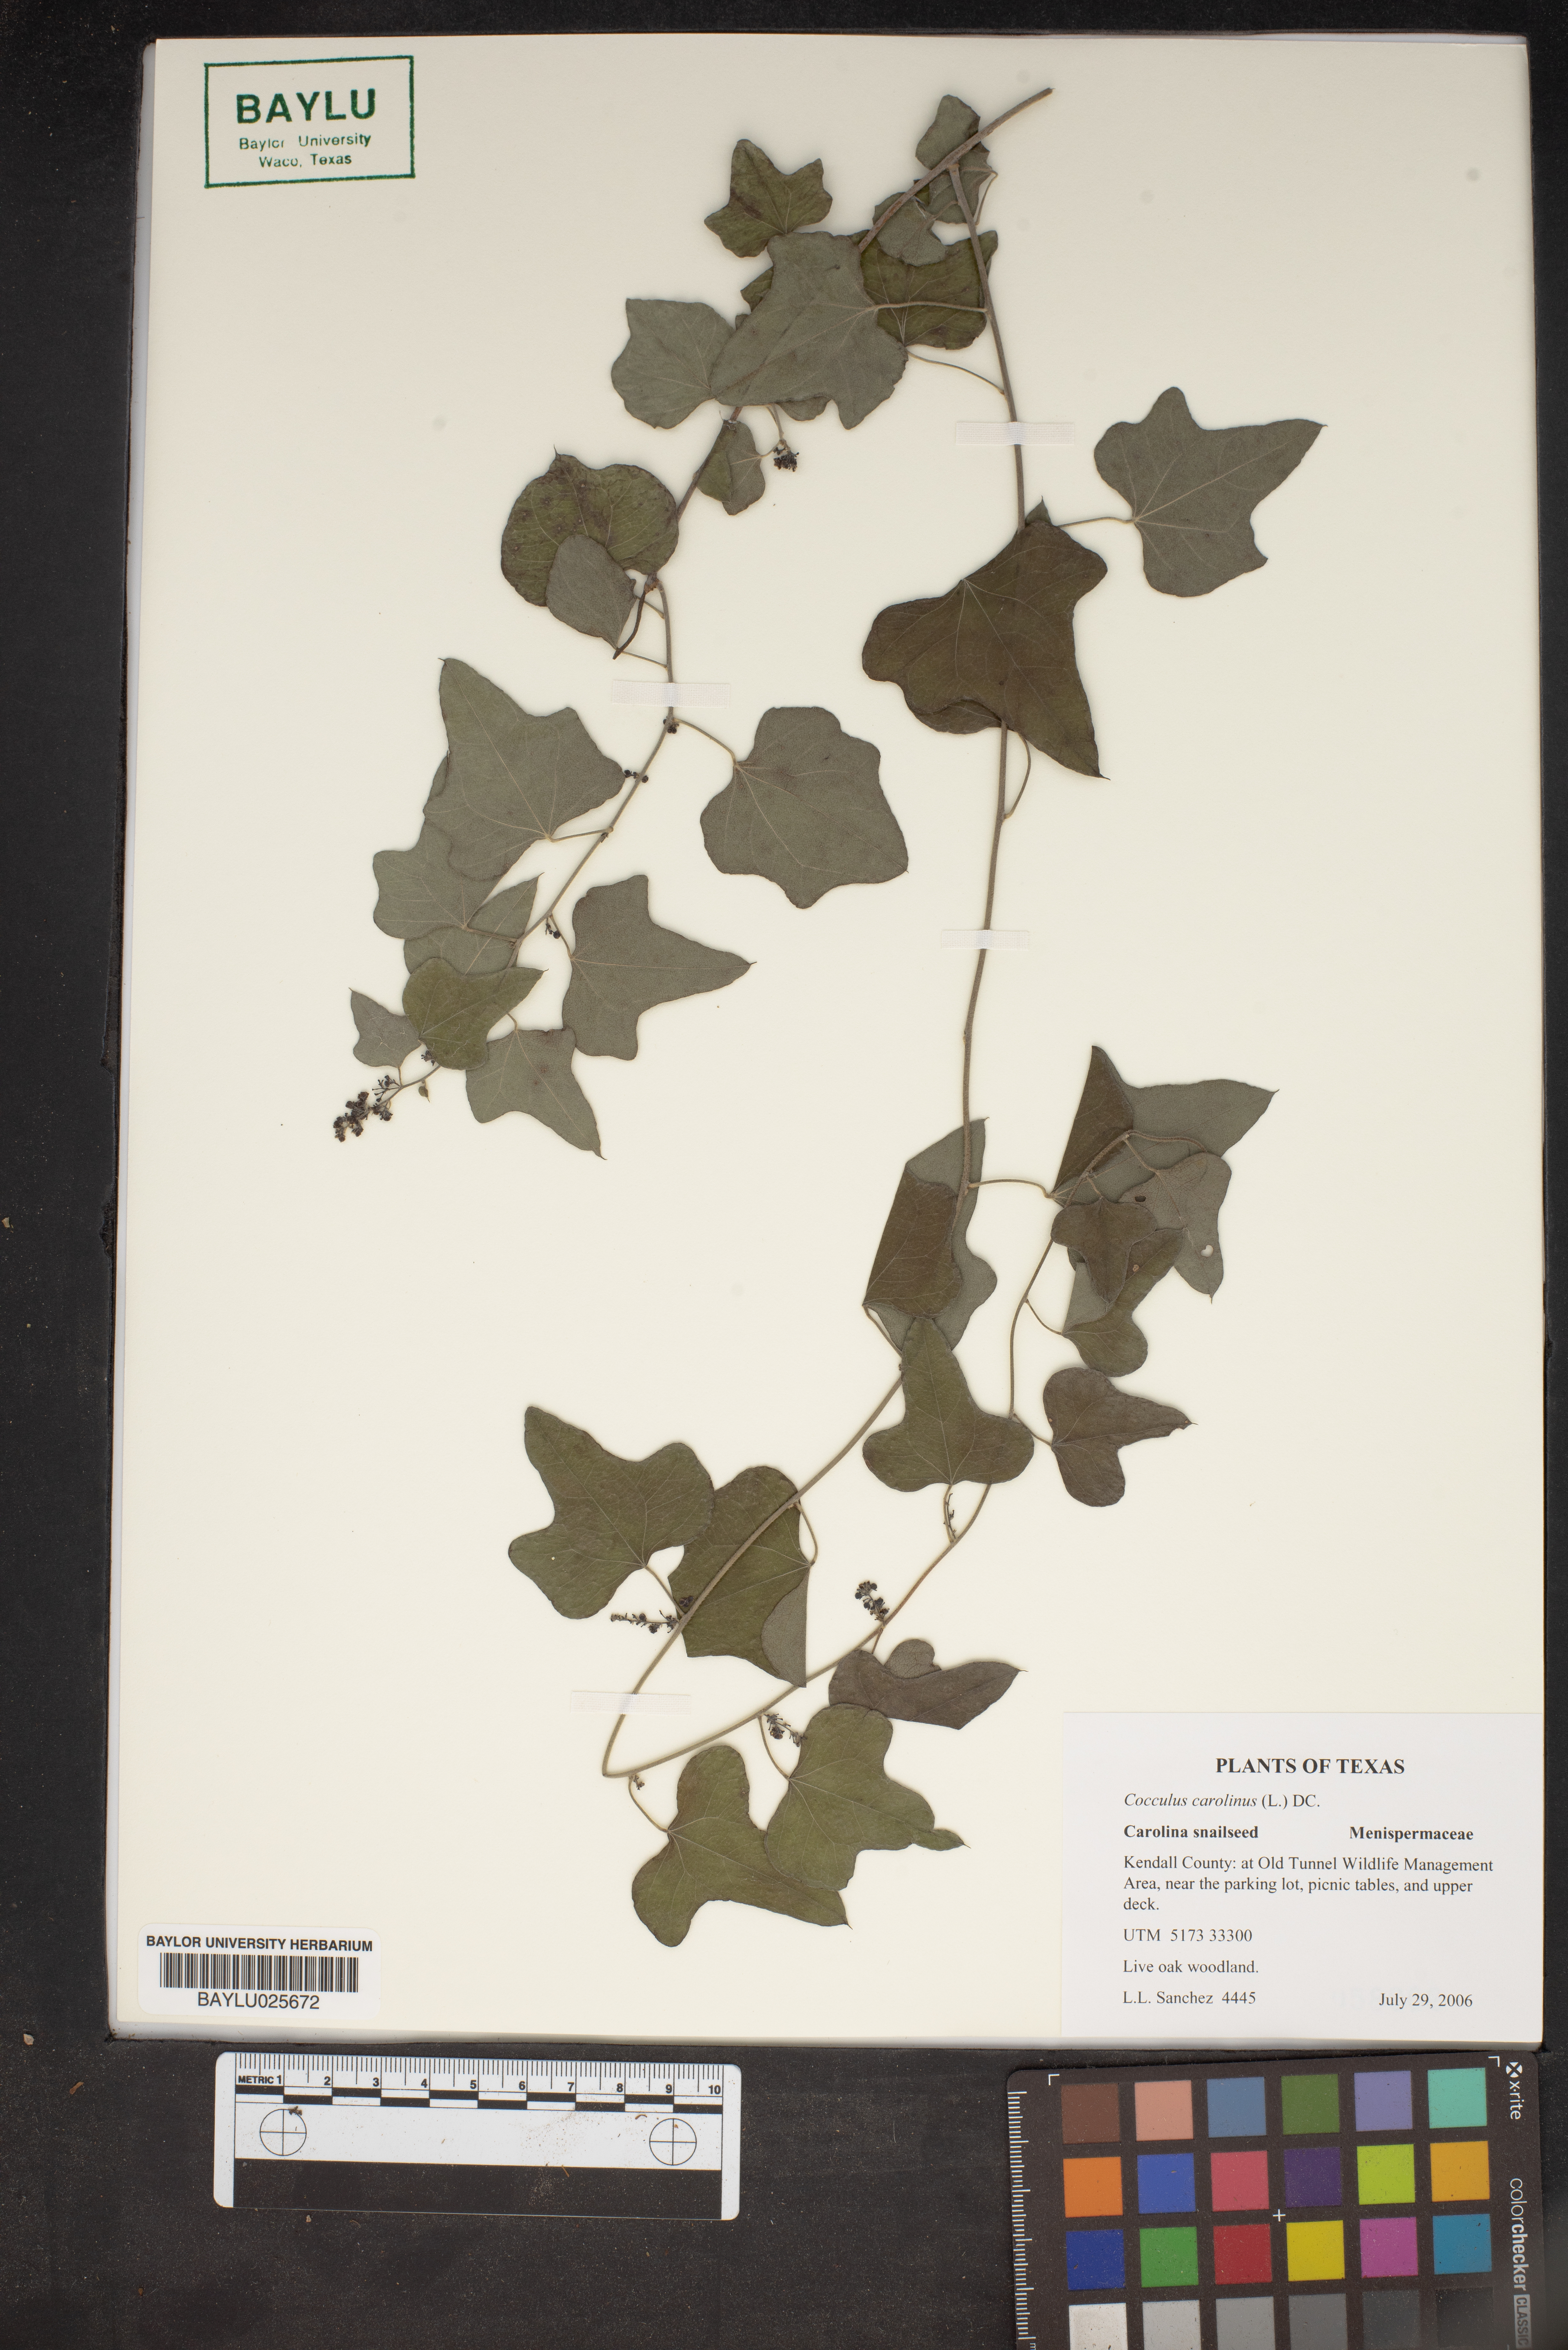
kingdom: Plantae
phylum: Tracheophyta
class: Magnoliopsida
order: Ranunculales
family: Menispermaceae
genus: Cocculus
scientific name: Cocculus carolinus
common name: Carolina moonseed
